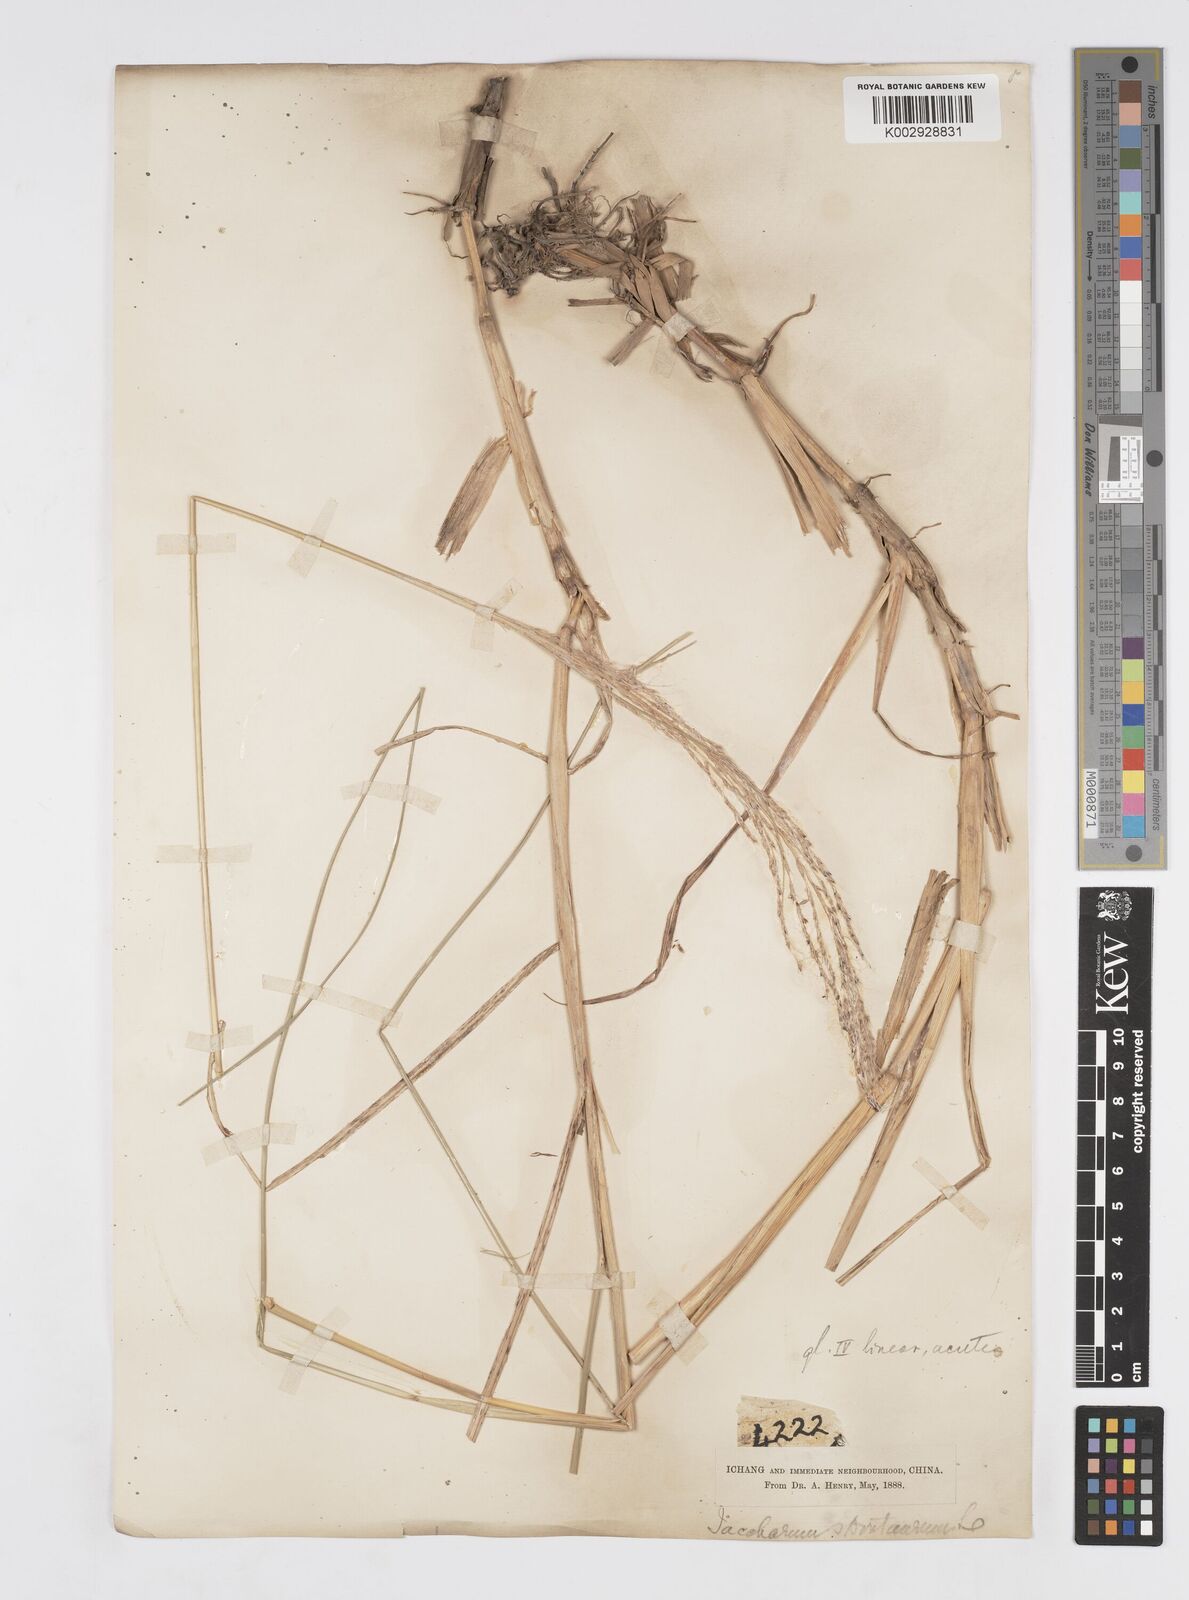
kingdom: Plantae
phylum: Tracheophyta
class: Liliopsida
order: Poales
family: Poaceae
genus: Saccharum
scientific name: Saccharum spontaneum
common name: Wild sugarcane
